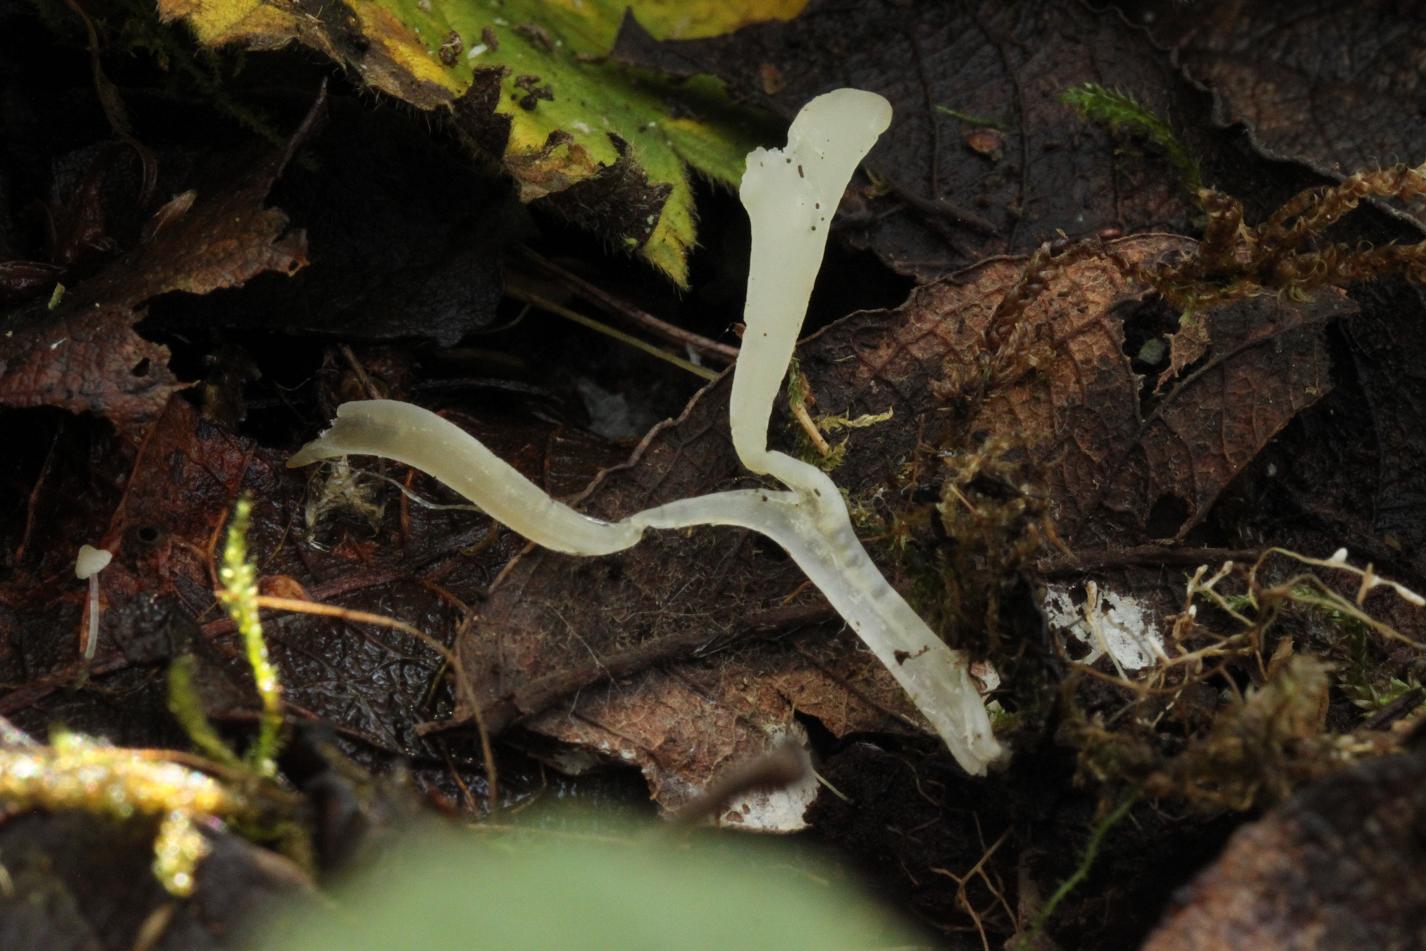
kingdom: Fungi
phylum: Basidiomycota
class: Agaricomycetes
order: Agaricales
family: Clavariaceae
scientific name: Clavariaceae
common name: køllesvampfamilien
